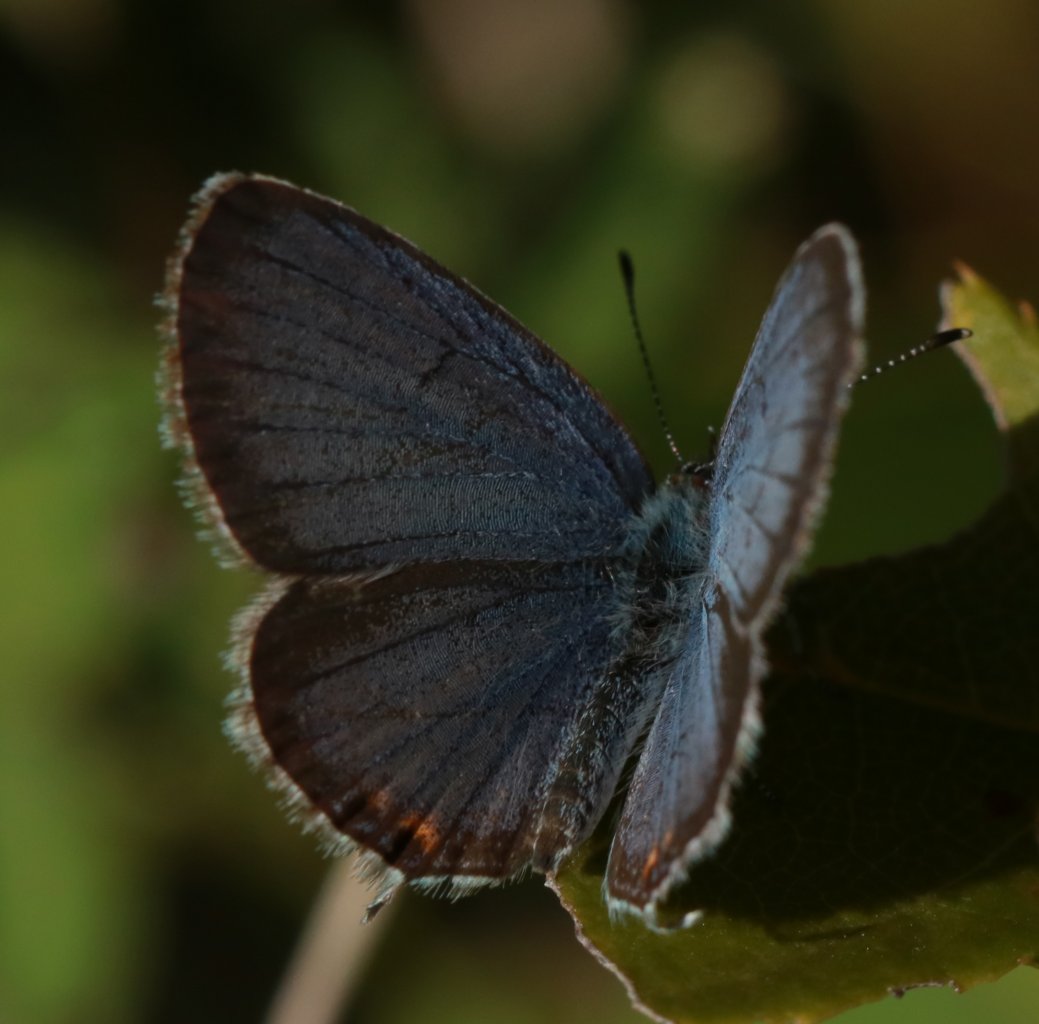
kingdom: Animalia
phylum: Arthropoda
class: Insecta
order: Lepidoptera
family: Lycaenidae
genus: Elkalyce
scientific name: Elkalyce comyntas
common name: Eastern Tailed-Blue
